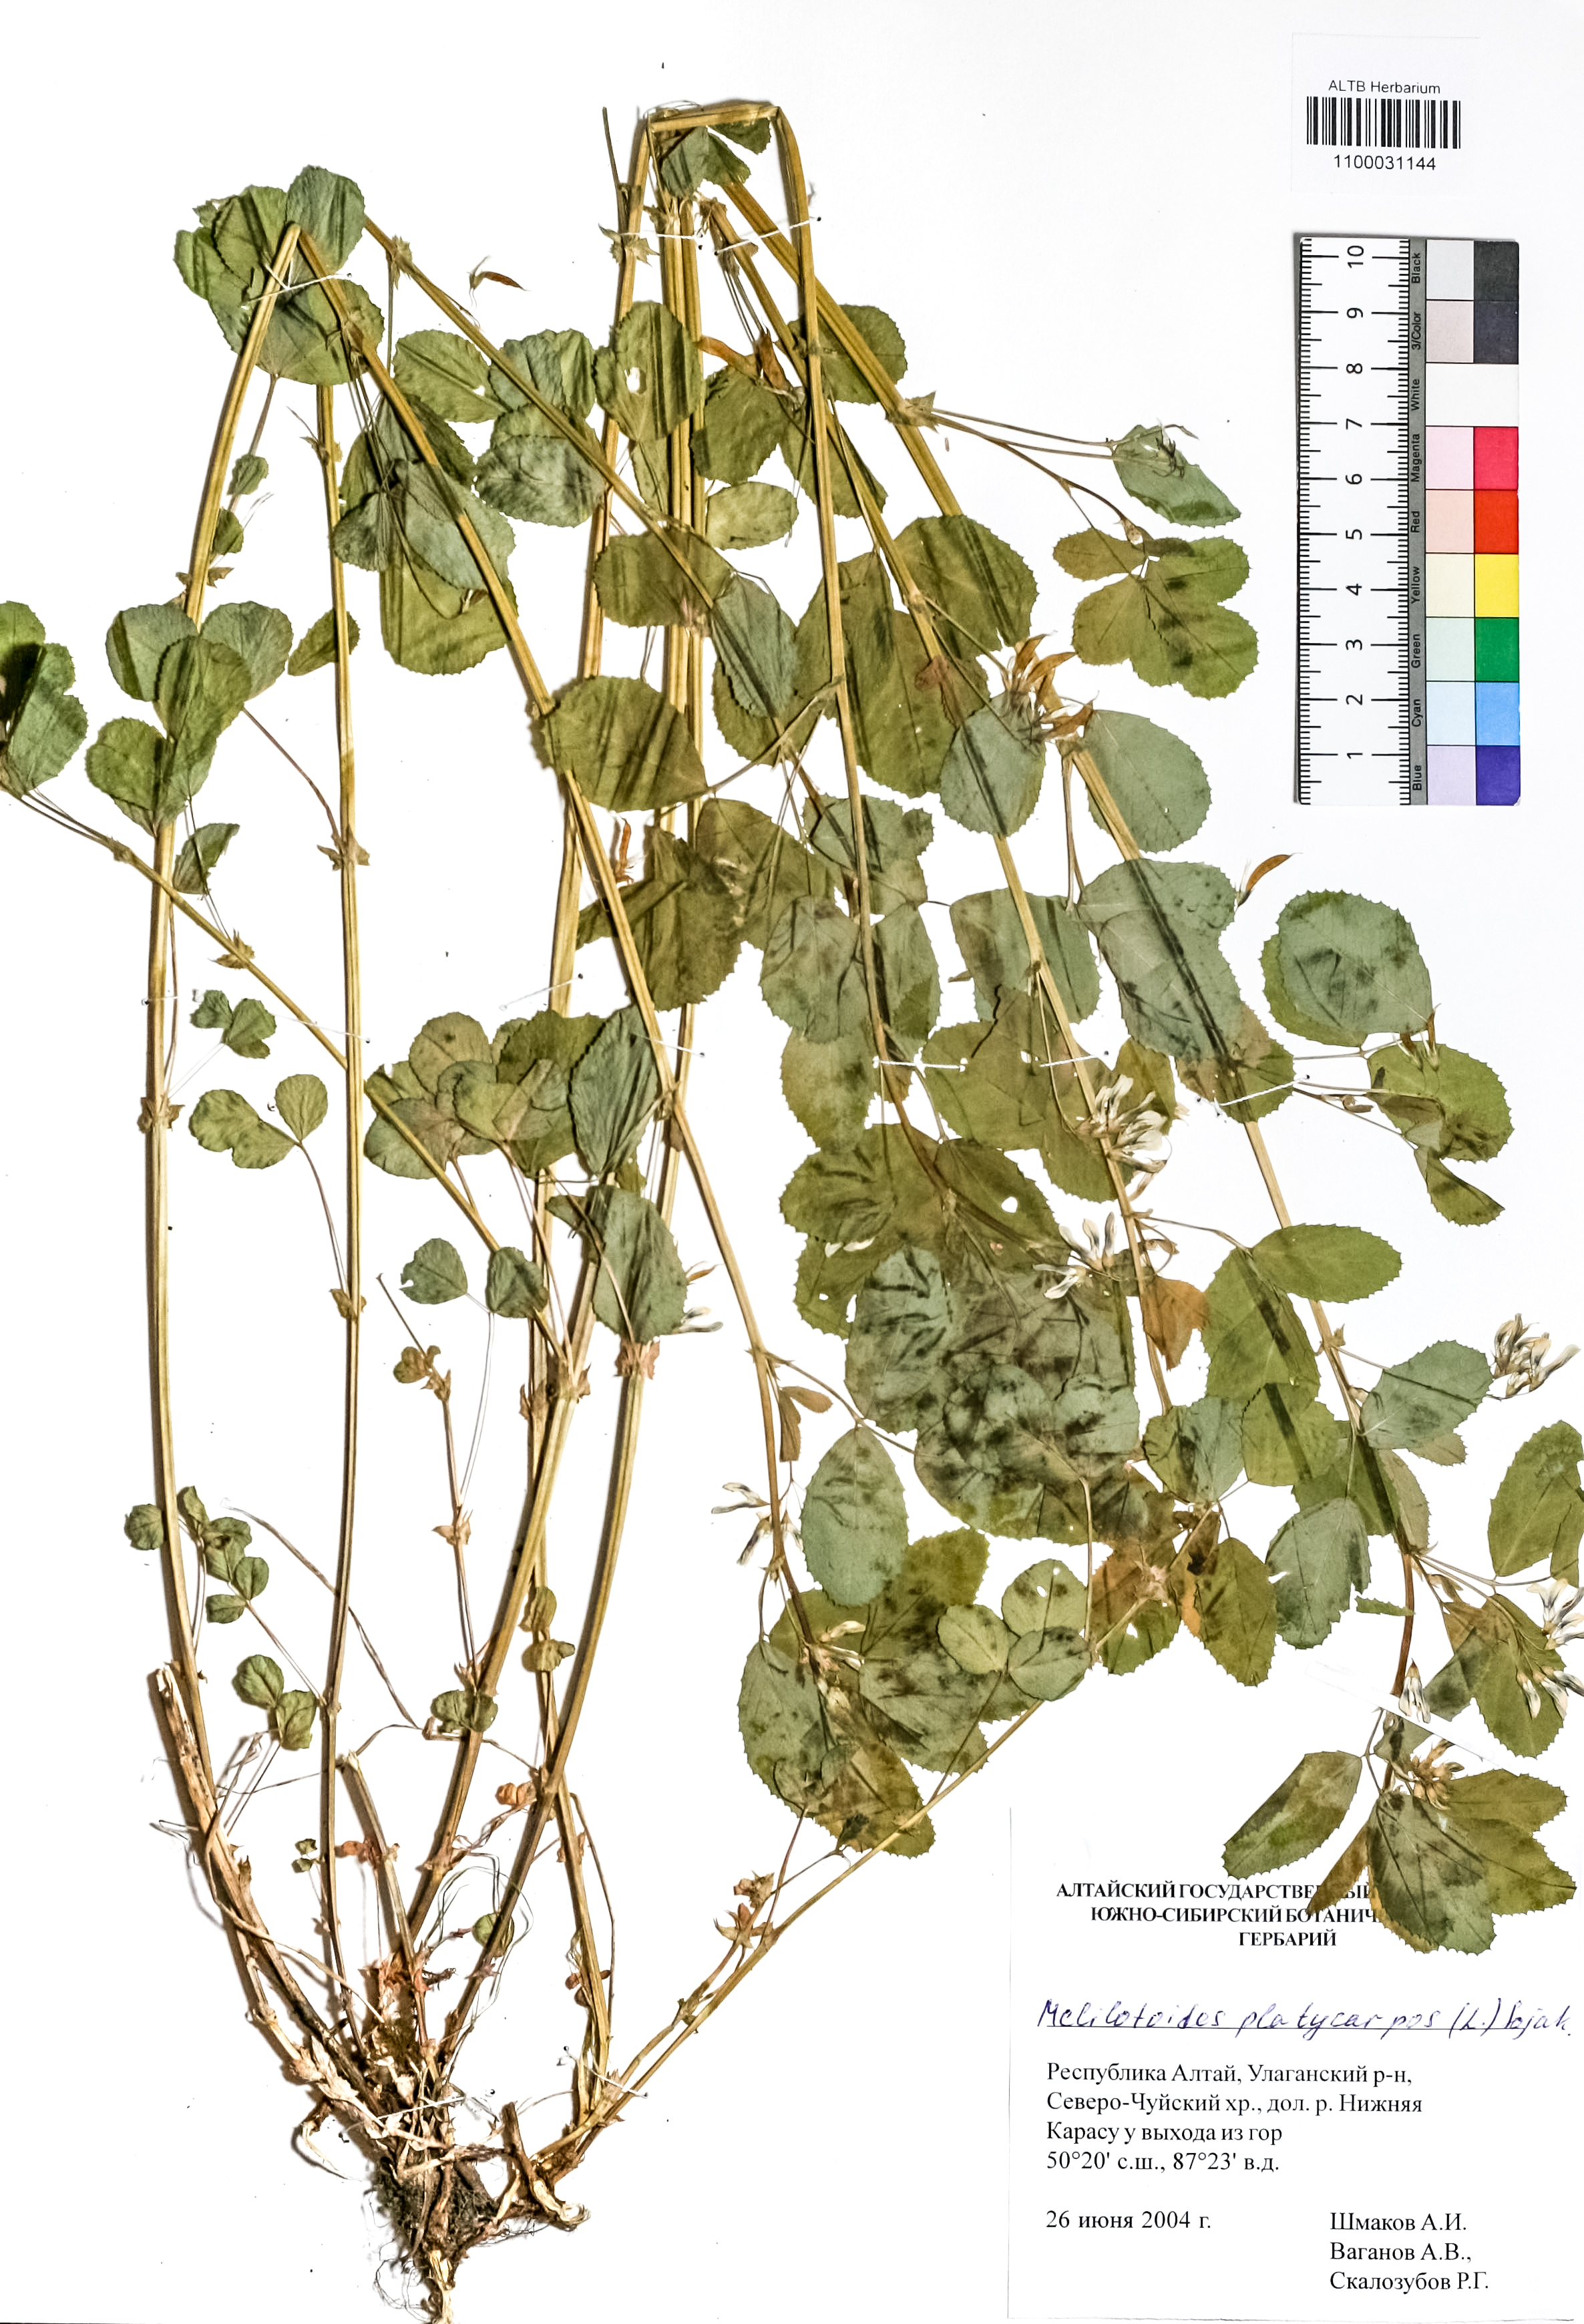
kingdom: Plantae
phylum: Tracheophyta
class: Magnoliopsida
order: Fabales
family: Fabaceae
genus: Medicago
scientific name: Medicago platycarpos
